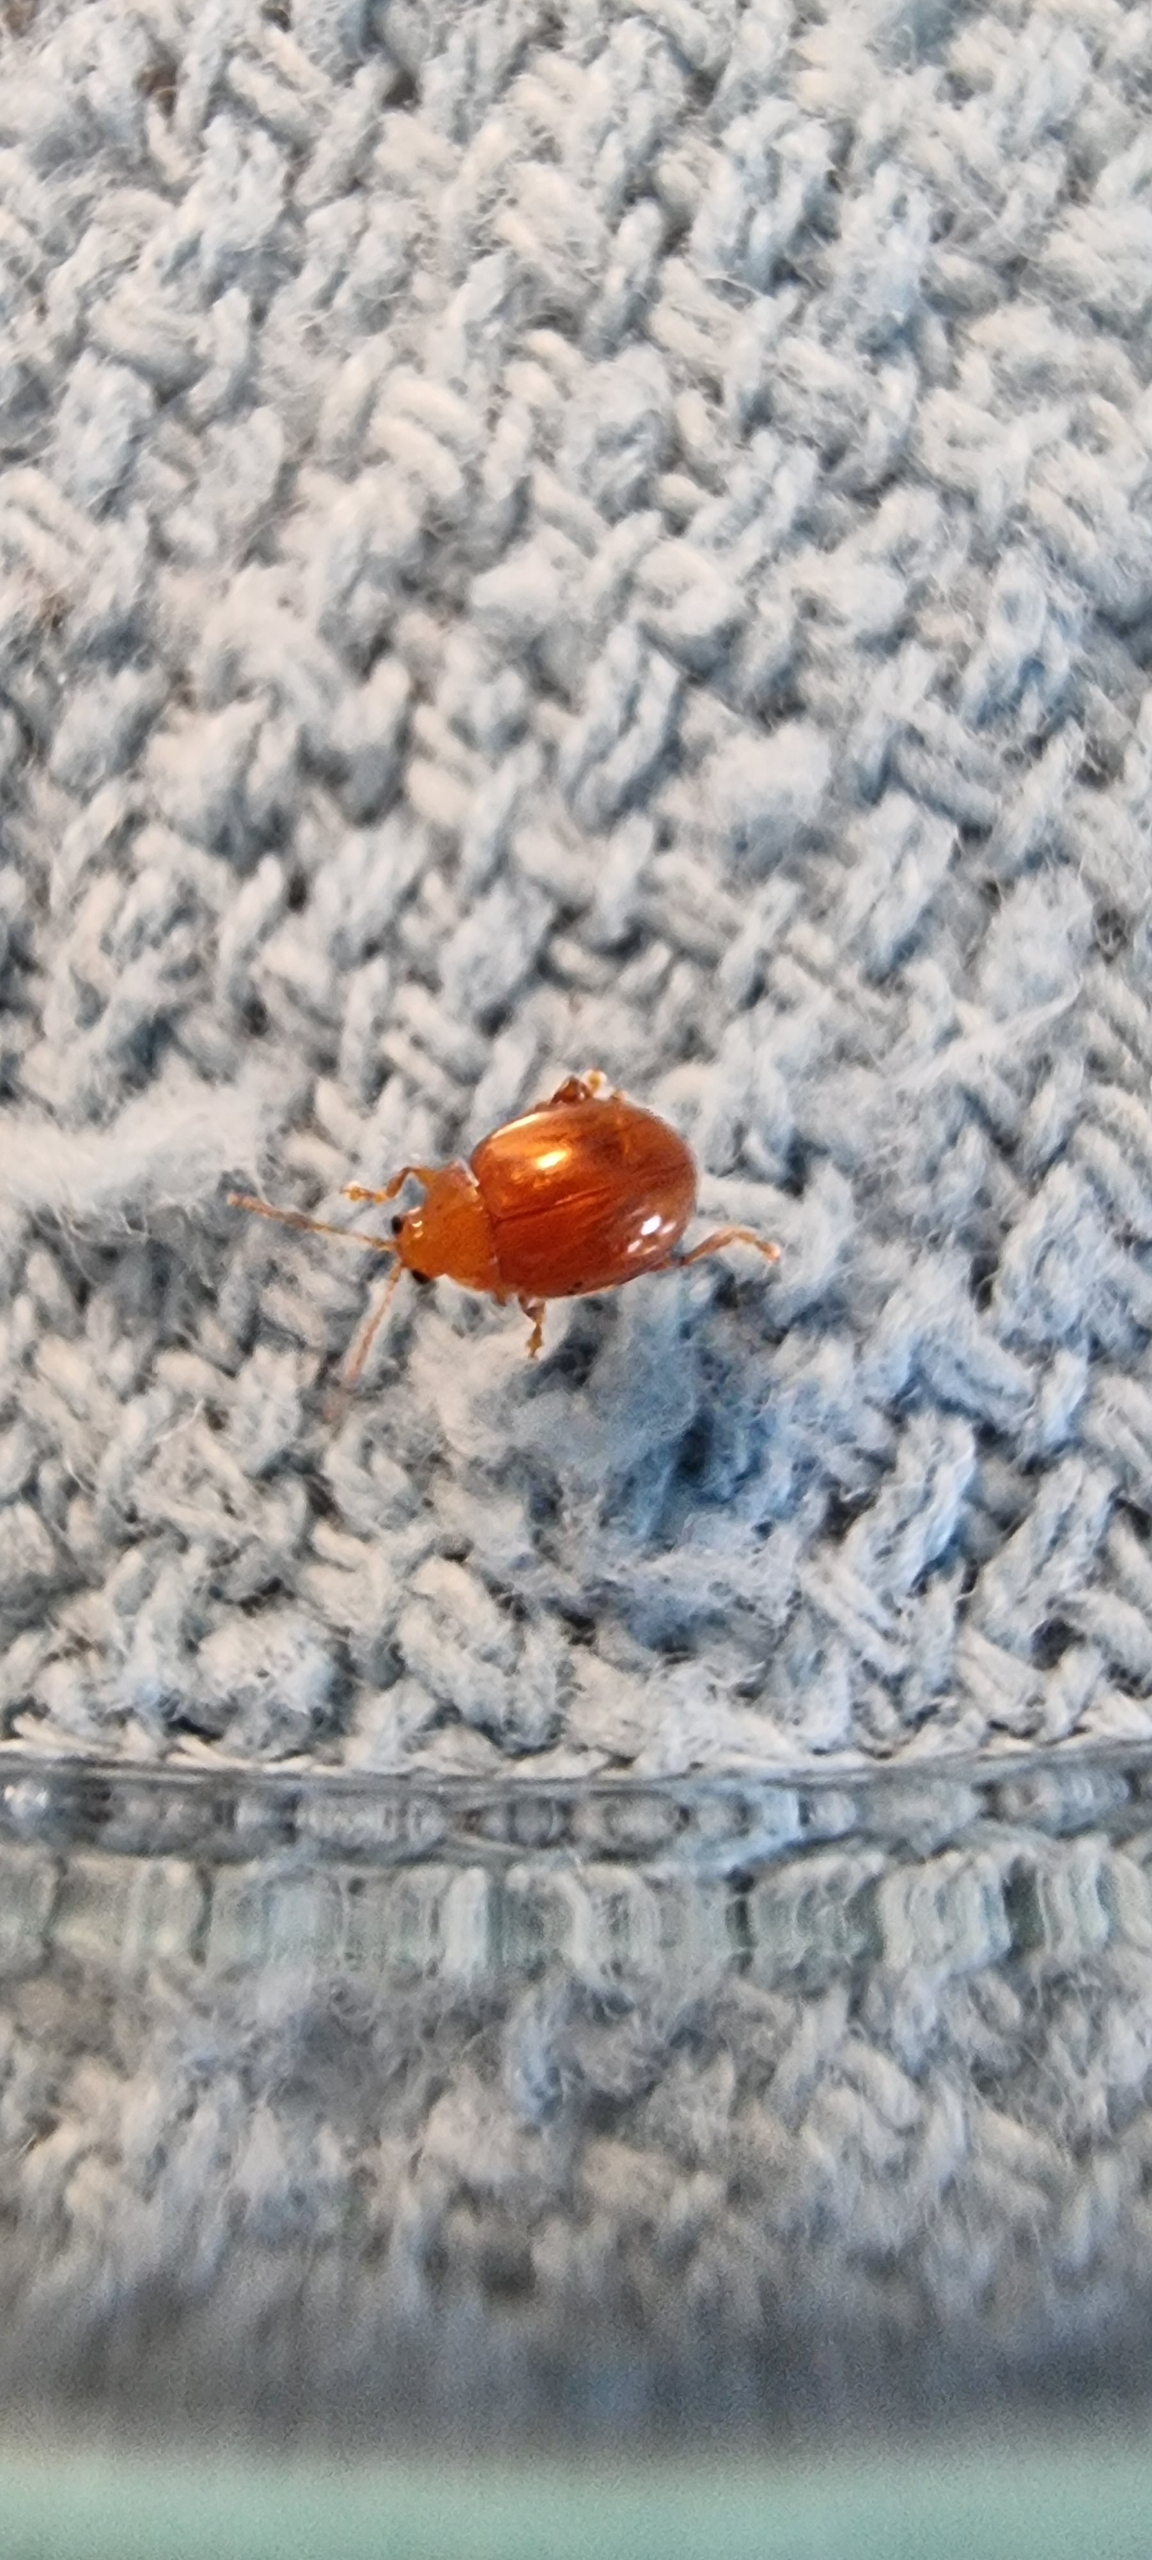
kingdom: Animalia
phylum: Arthropoda
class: Insecta
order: Coleoptera
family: Chrysomelidae
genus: Pistosia
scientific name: Pistosia testacea
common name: Tidselkuglebille
